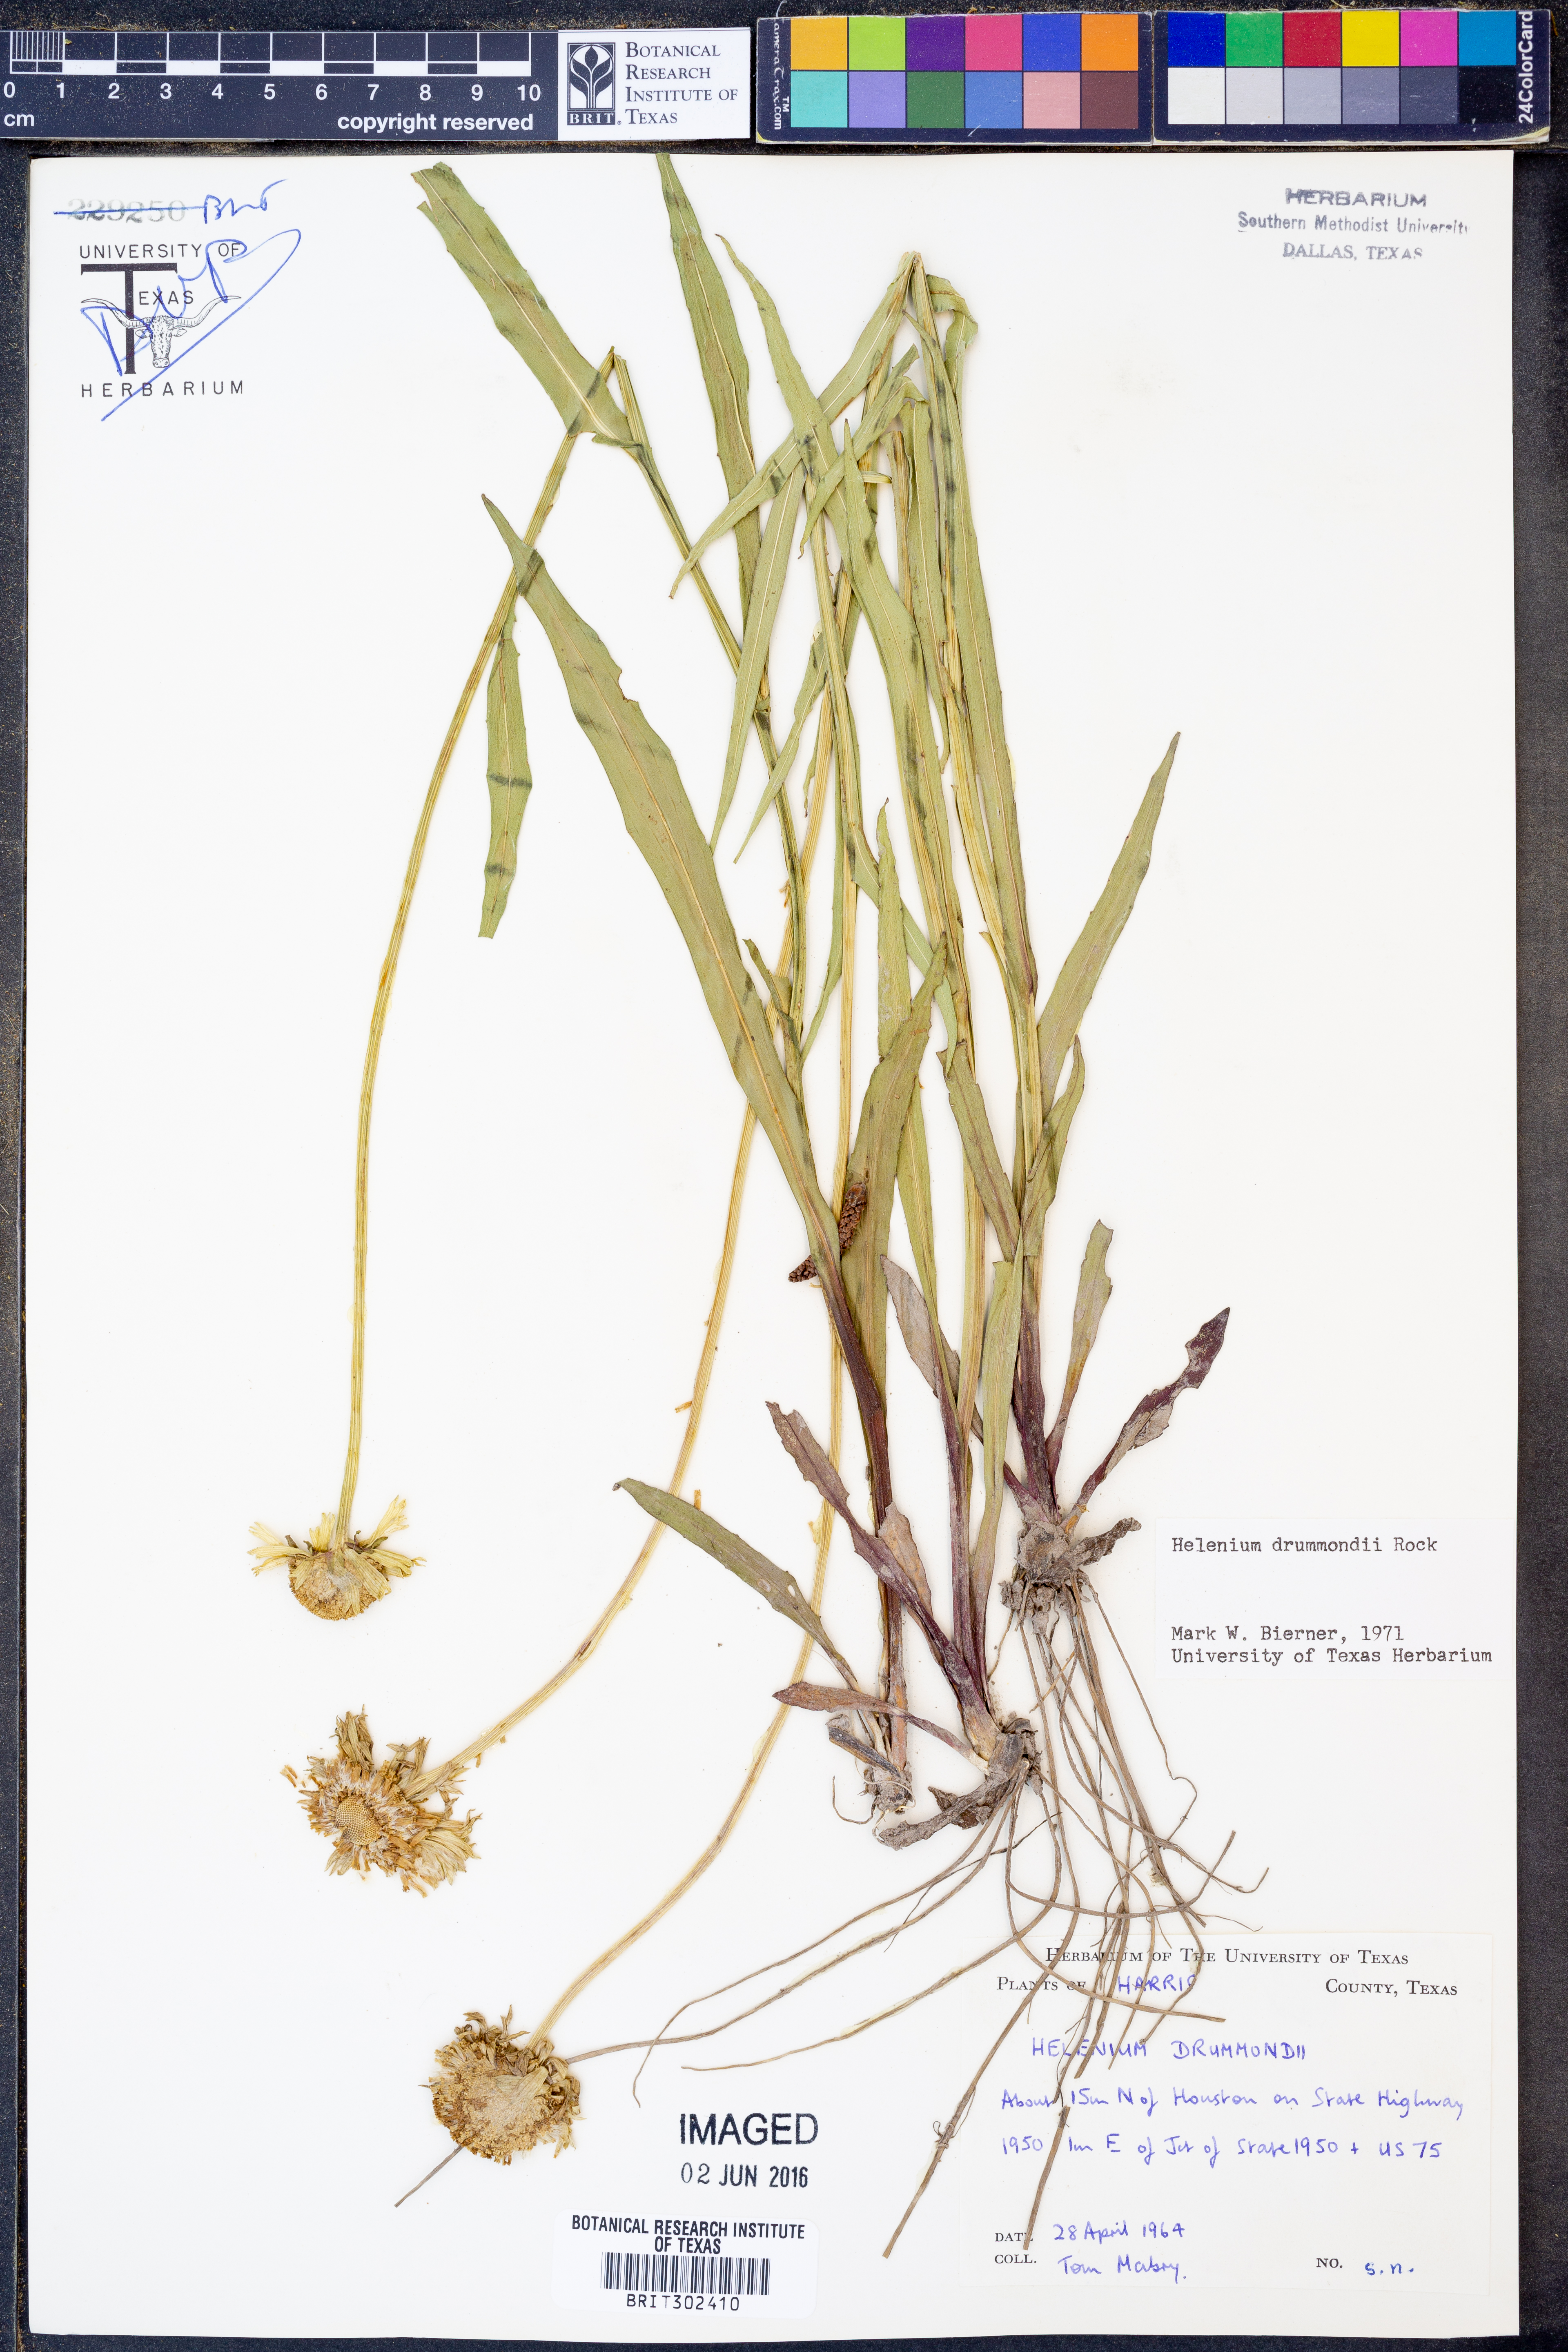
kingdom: Plantae
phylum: Tracheophyta
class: Magnoliopsida
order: Asterales
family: Asteraceae
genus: Helenium
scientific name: Helenium drummondii
